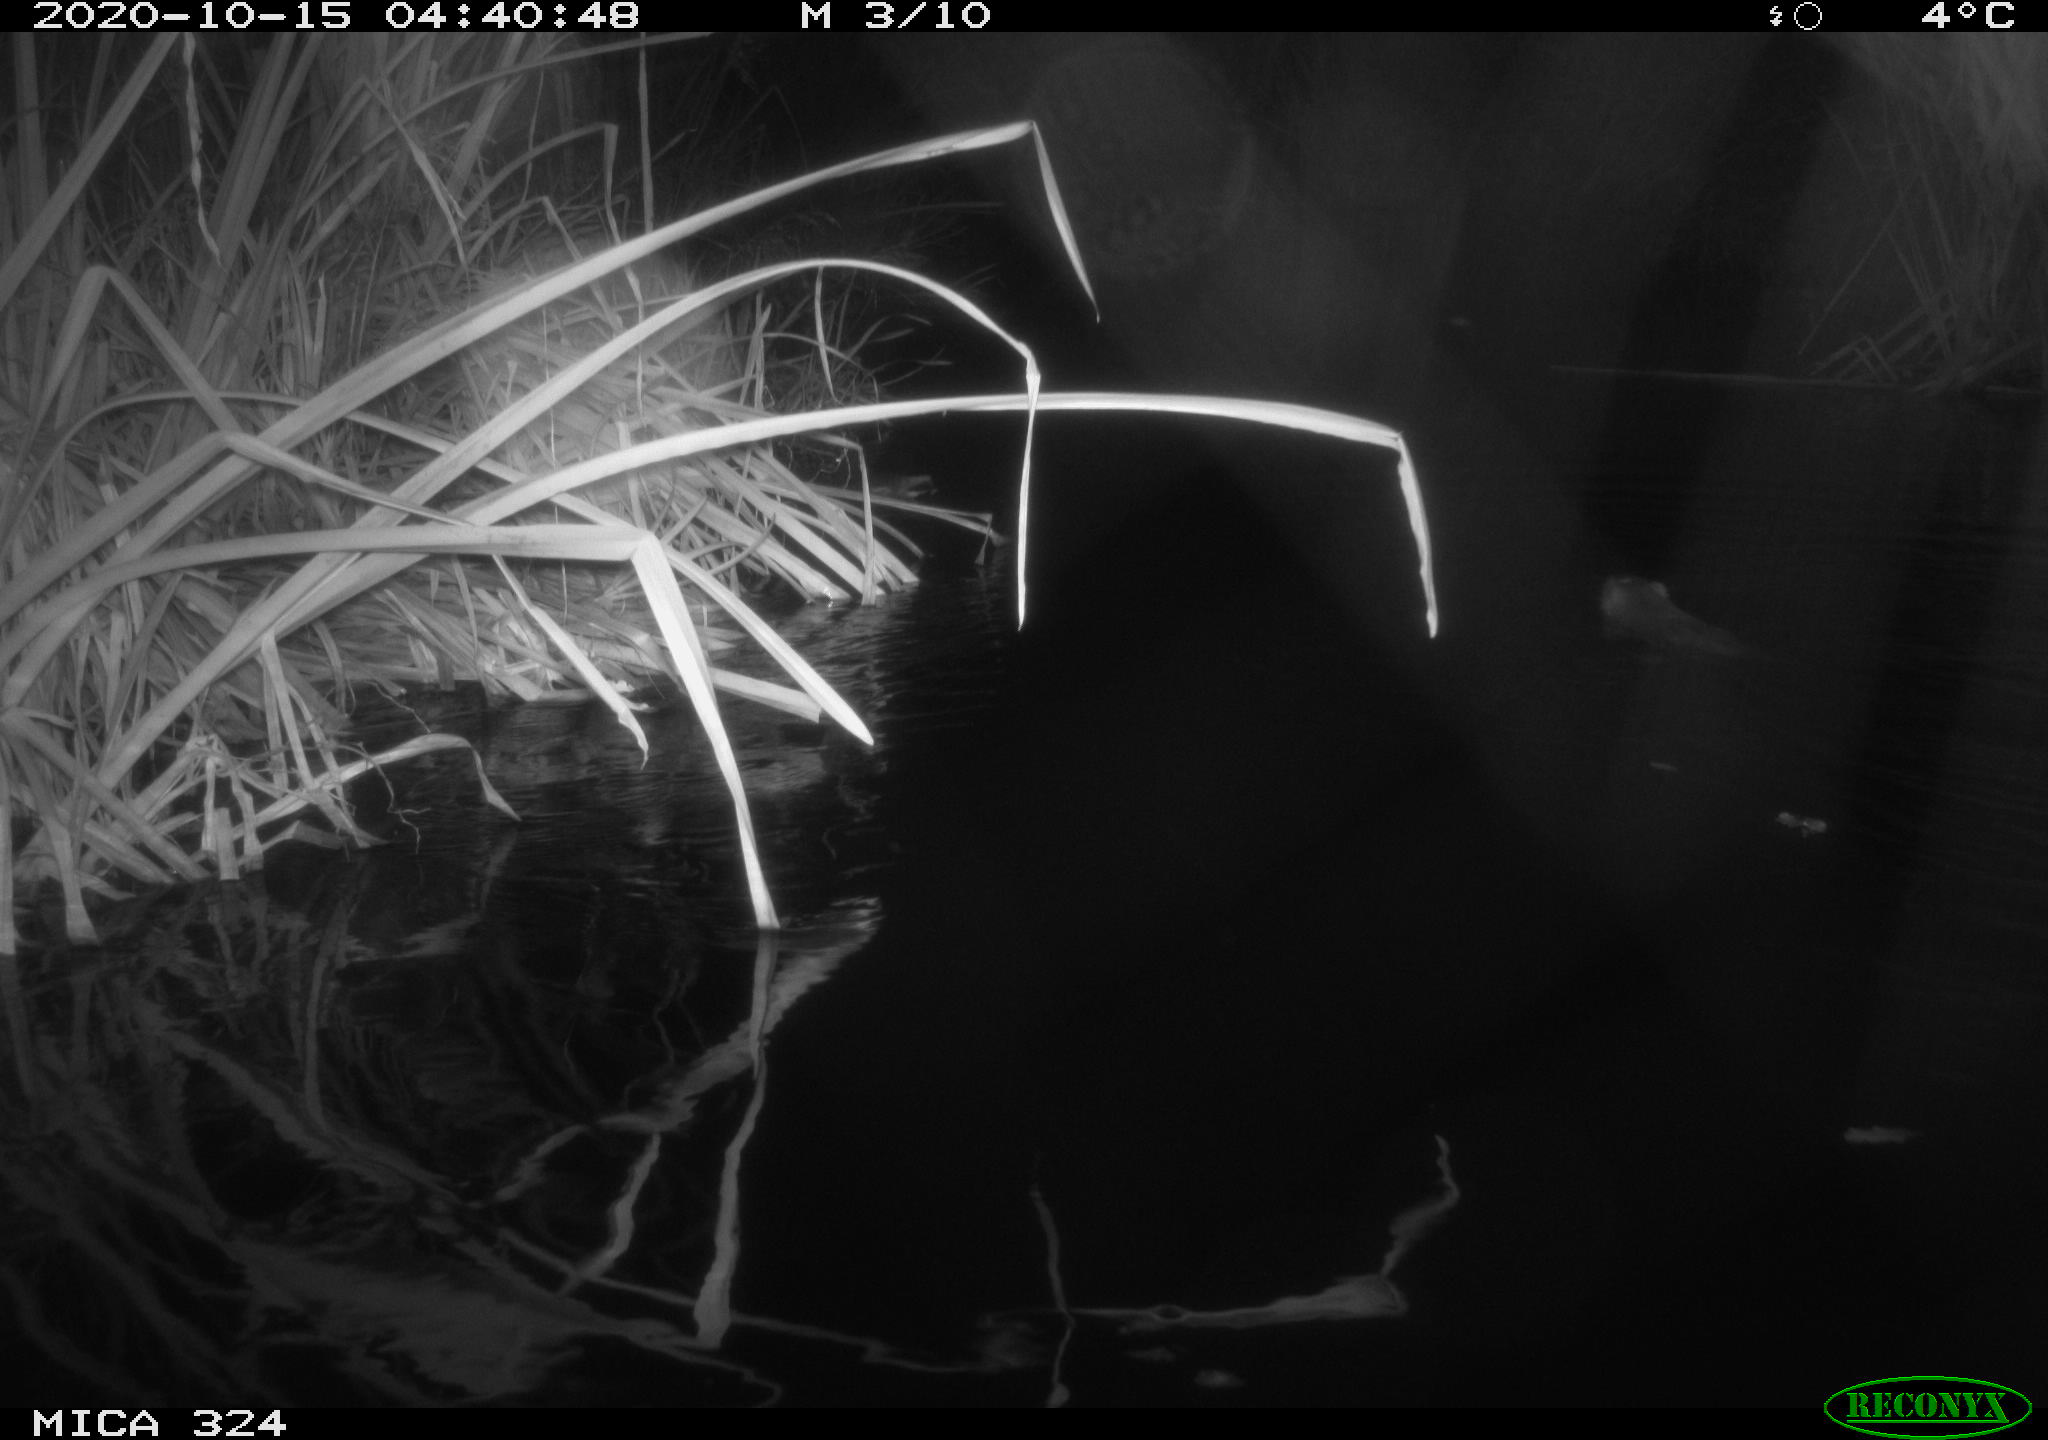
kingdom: Animalia
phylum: Chordata
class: Mammalia
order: Rodentia
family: Cricetidae
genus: Ondatra
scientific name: Ondatra zibethicus
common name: Muskrat
